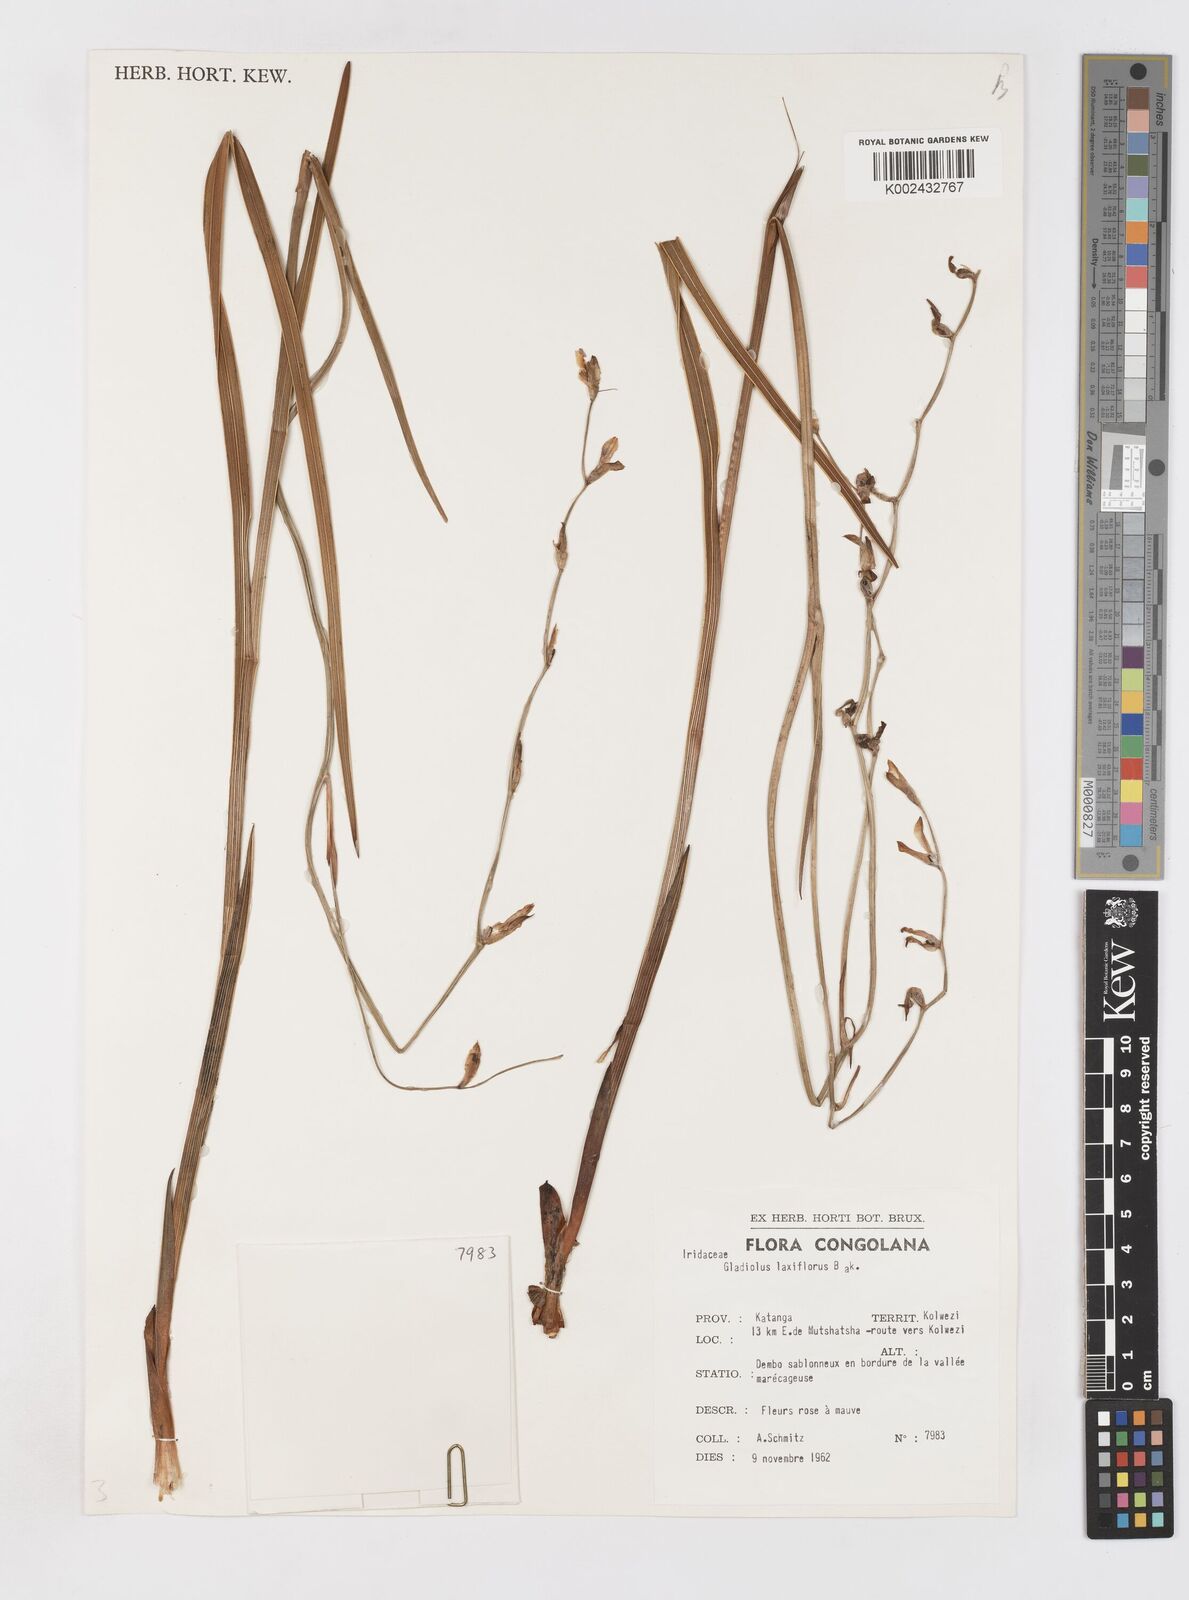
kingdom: Plantae
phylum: Tracheophyta
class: Liliopsida
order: Asparagales
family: Iridaceae
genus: Gladiolus
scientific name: Gladiolus laxiflorus
